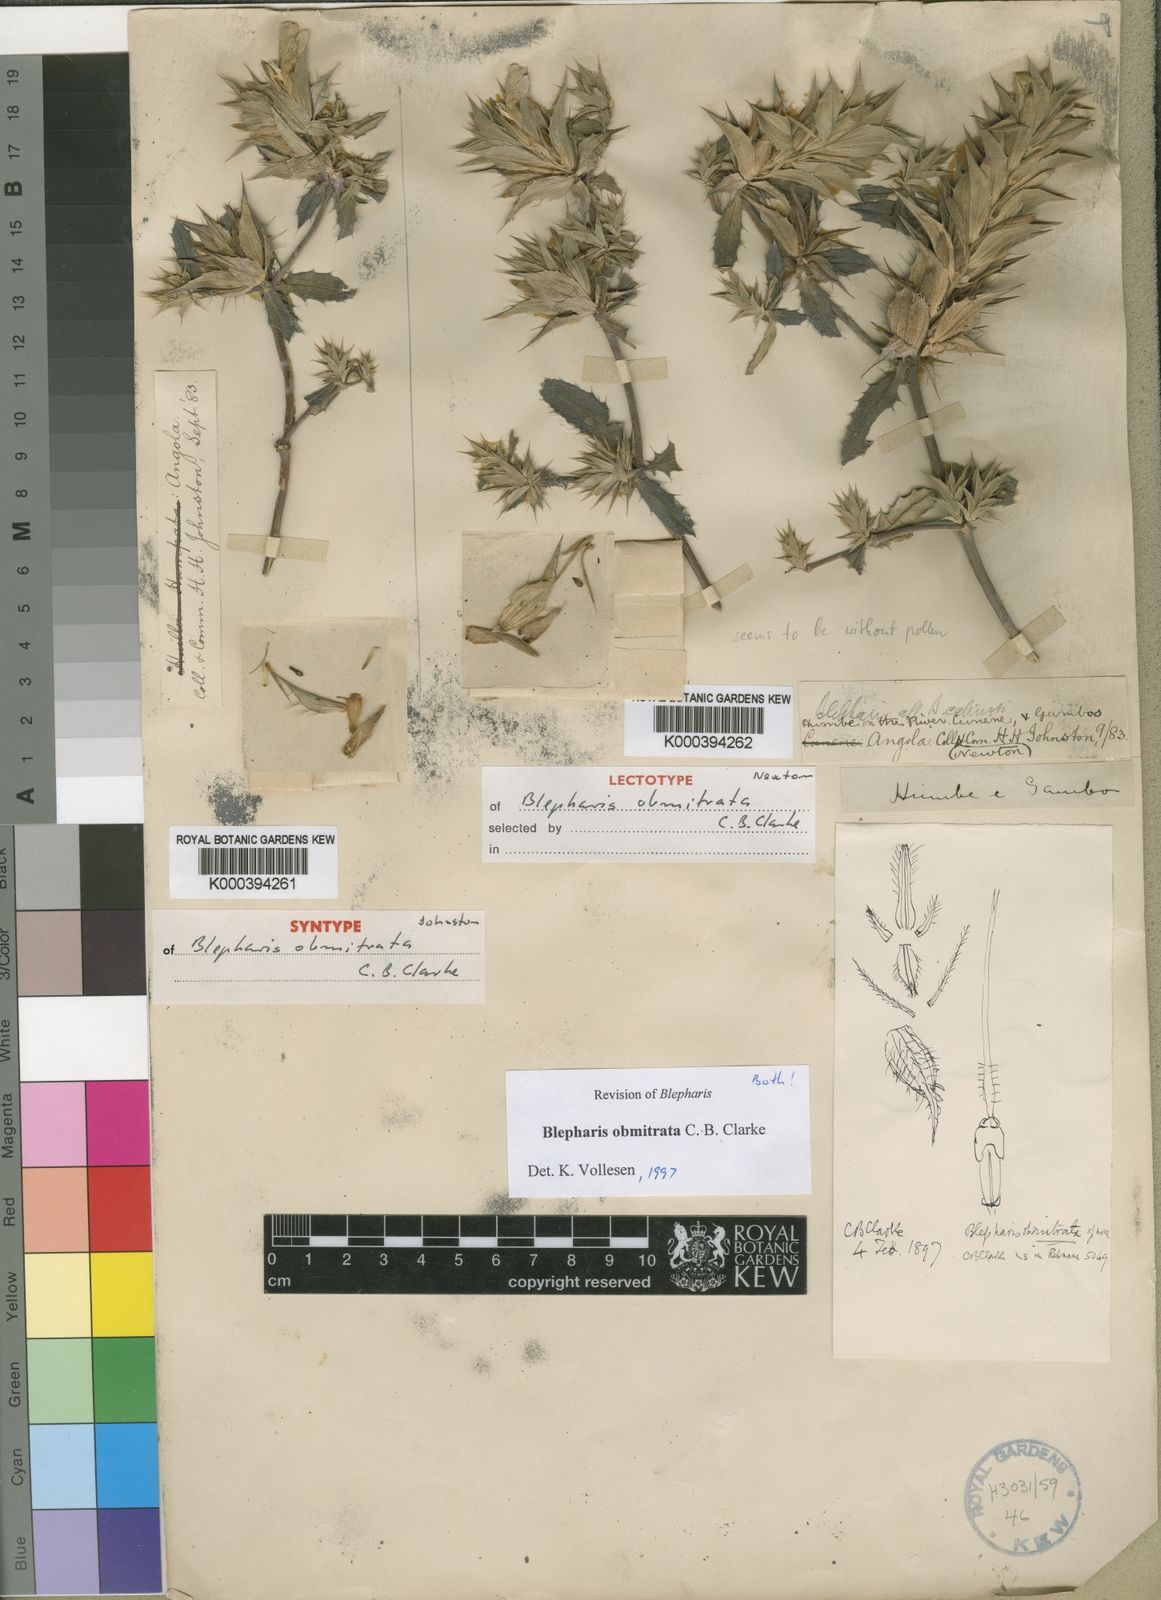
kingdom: Plantae
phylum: Tracheophyta
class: Magnoliopsida
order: Lamiales
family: Acanthaceae
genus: Blepharis
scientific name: Blepharis obmitrata
